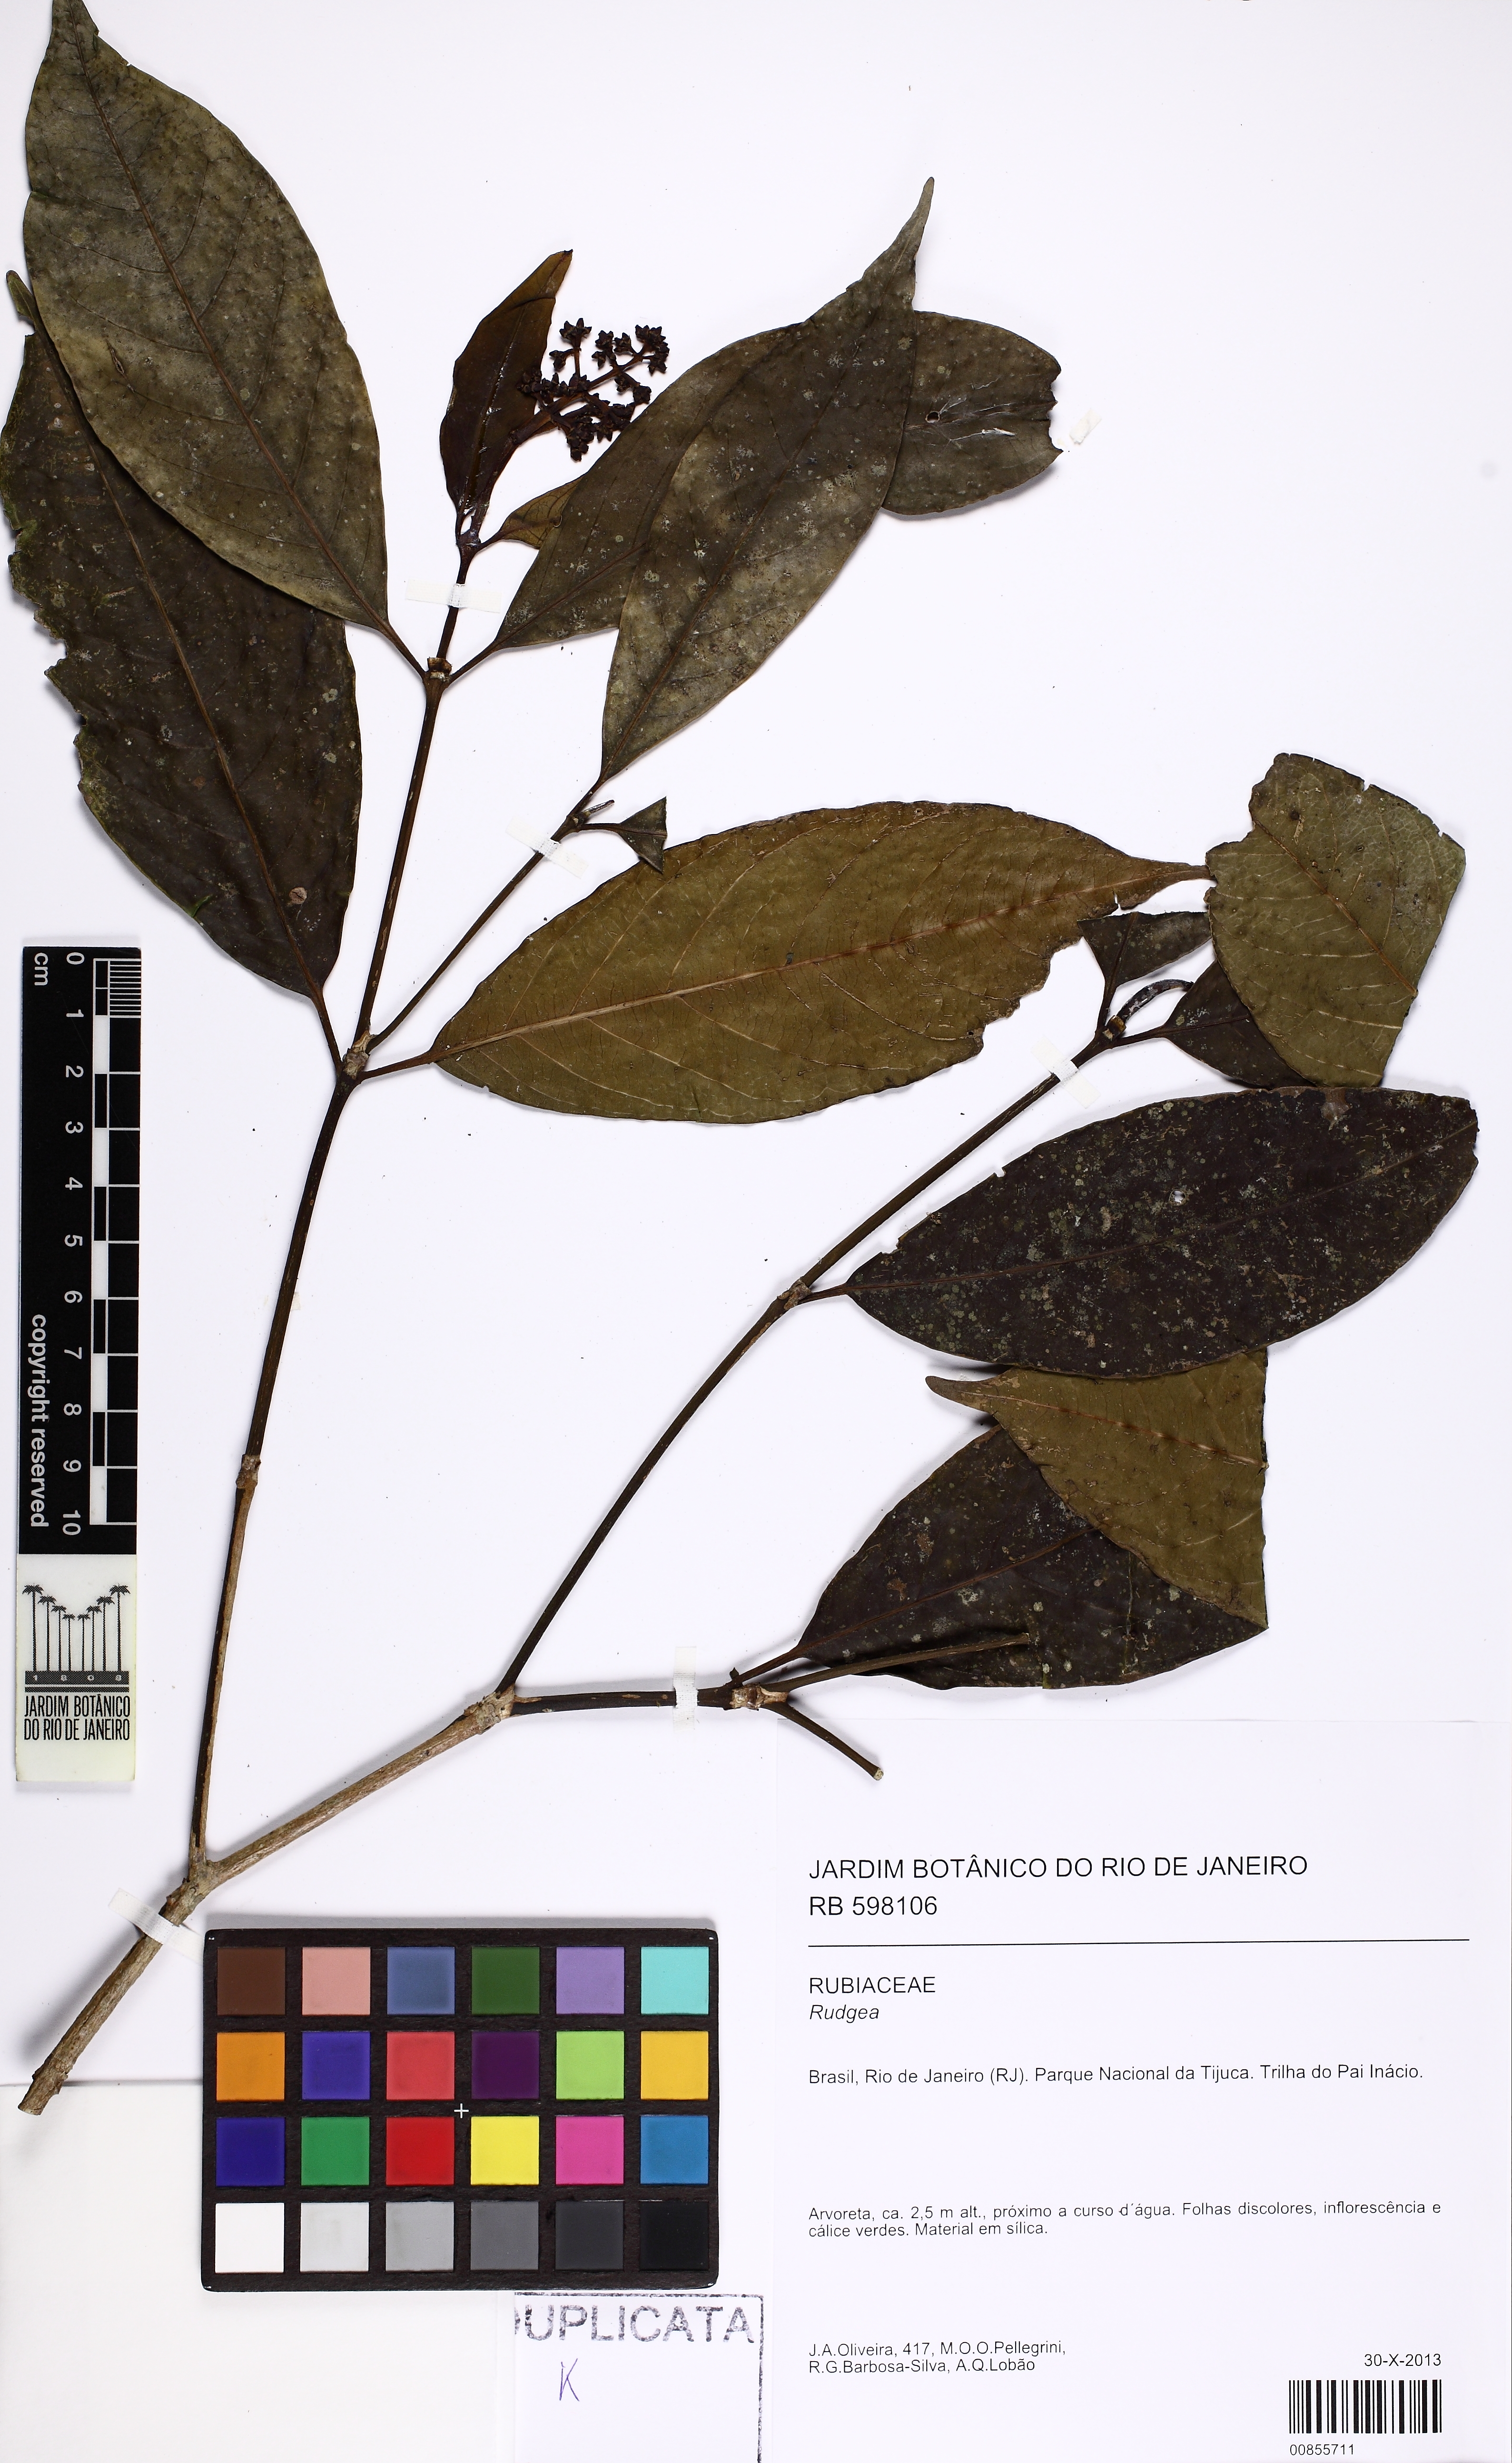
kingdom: Plantae
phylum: Tracheophyta
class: Magnoliopsida
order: Gentianales
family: Rubiaceae
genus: Rudgea
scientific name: Rudgea coronata
